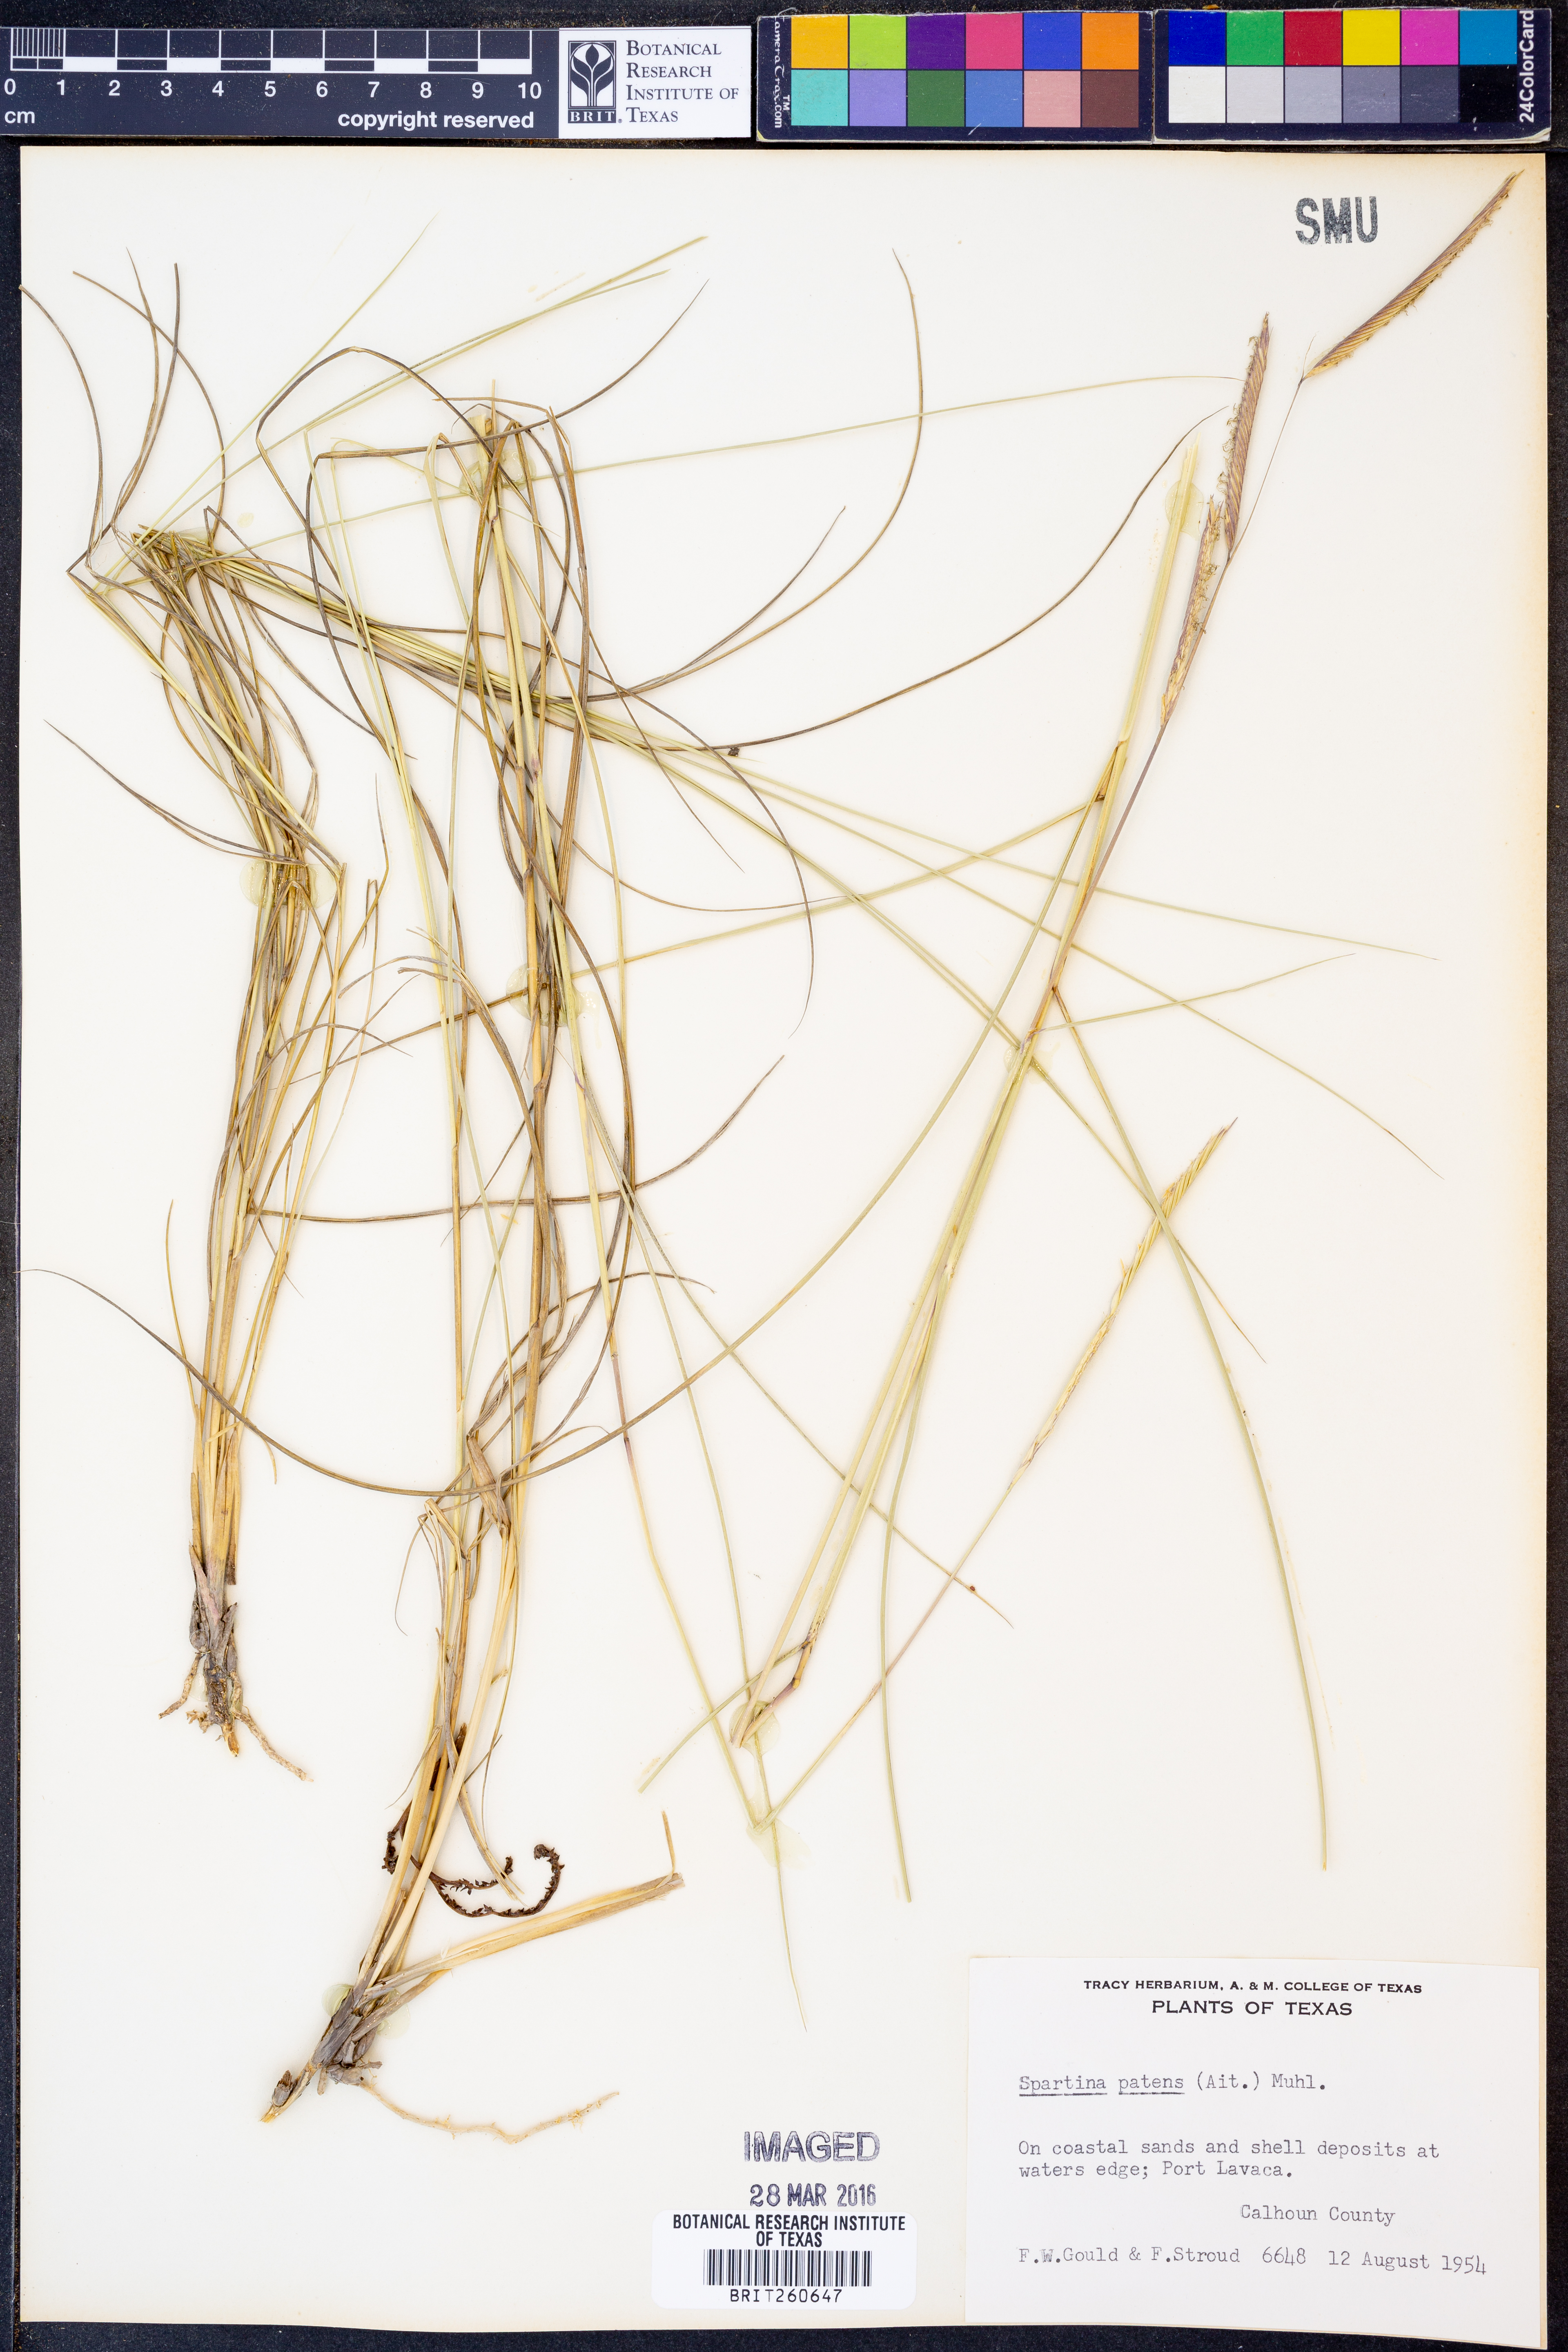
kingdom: Plantae
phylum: Tracheophyta
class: Liliopsida
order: Poales
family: Poaceae
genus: Sporobolus
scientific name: Sporobolus pumilus
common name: Highwater grass
